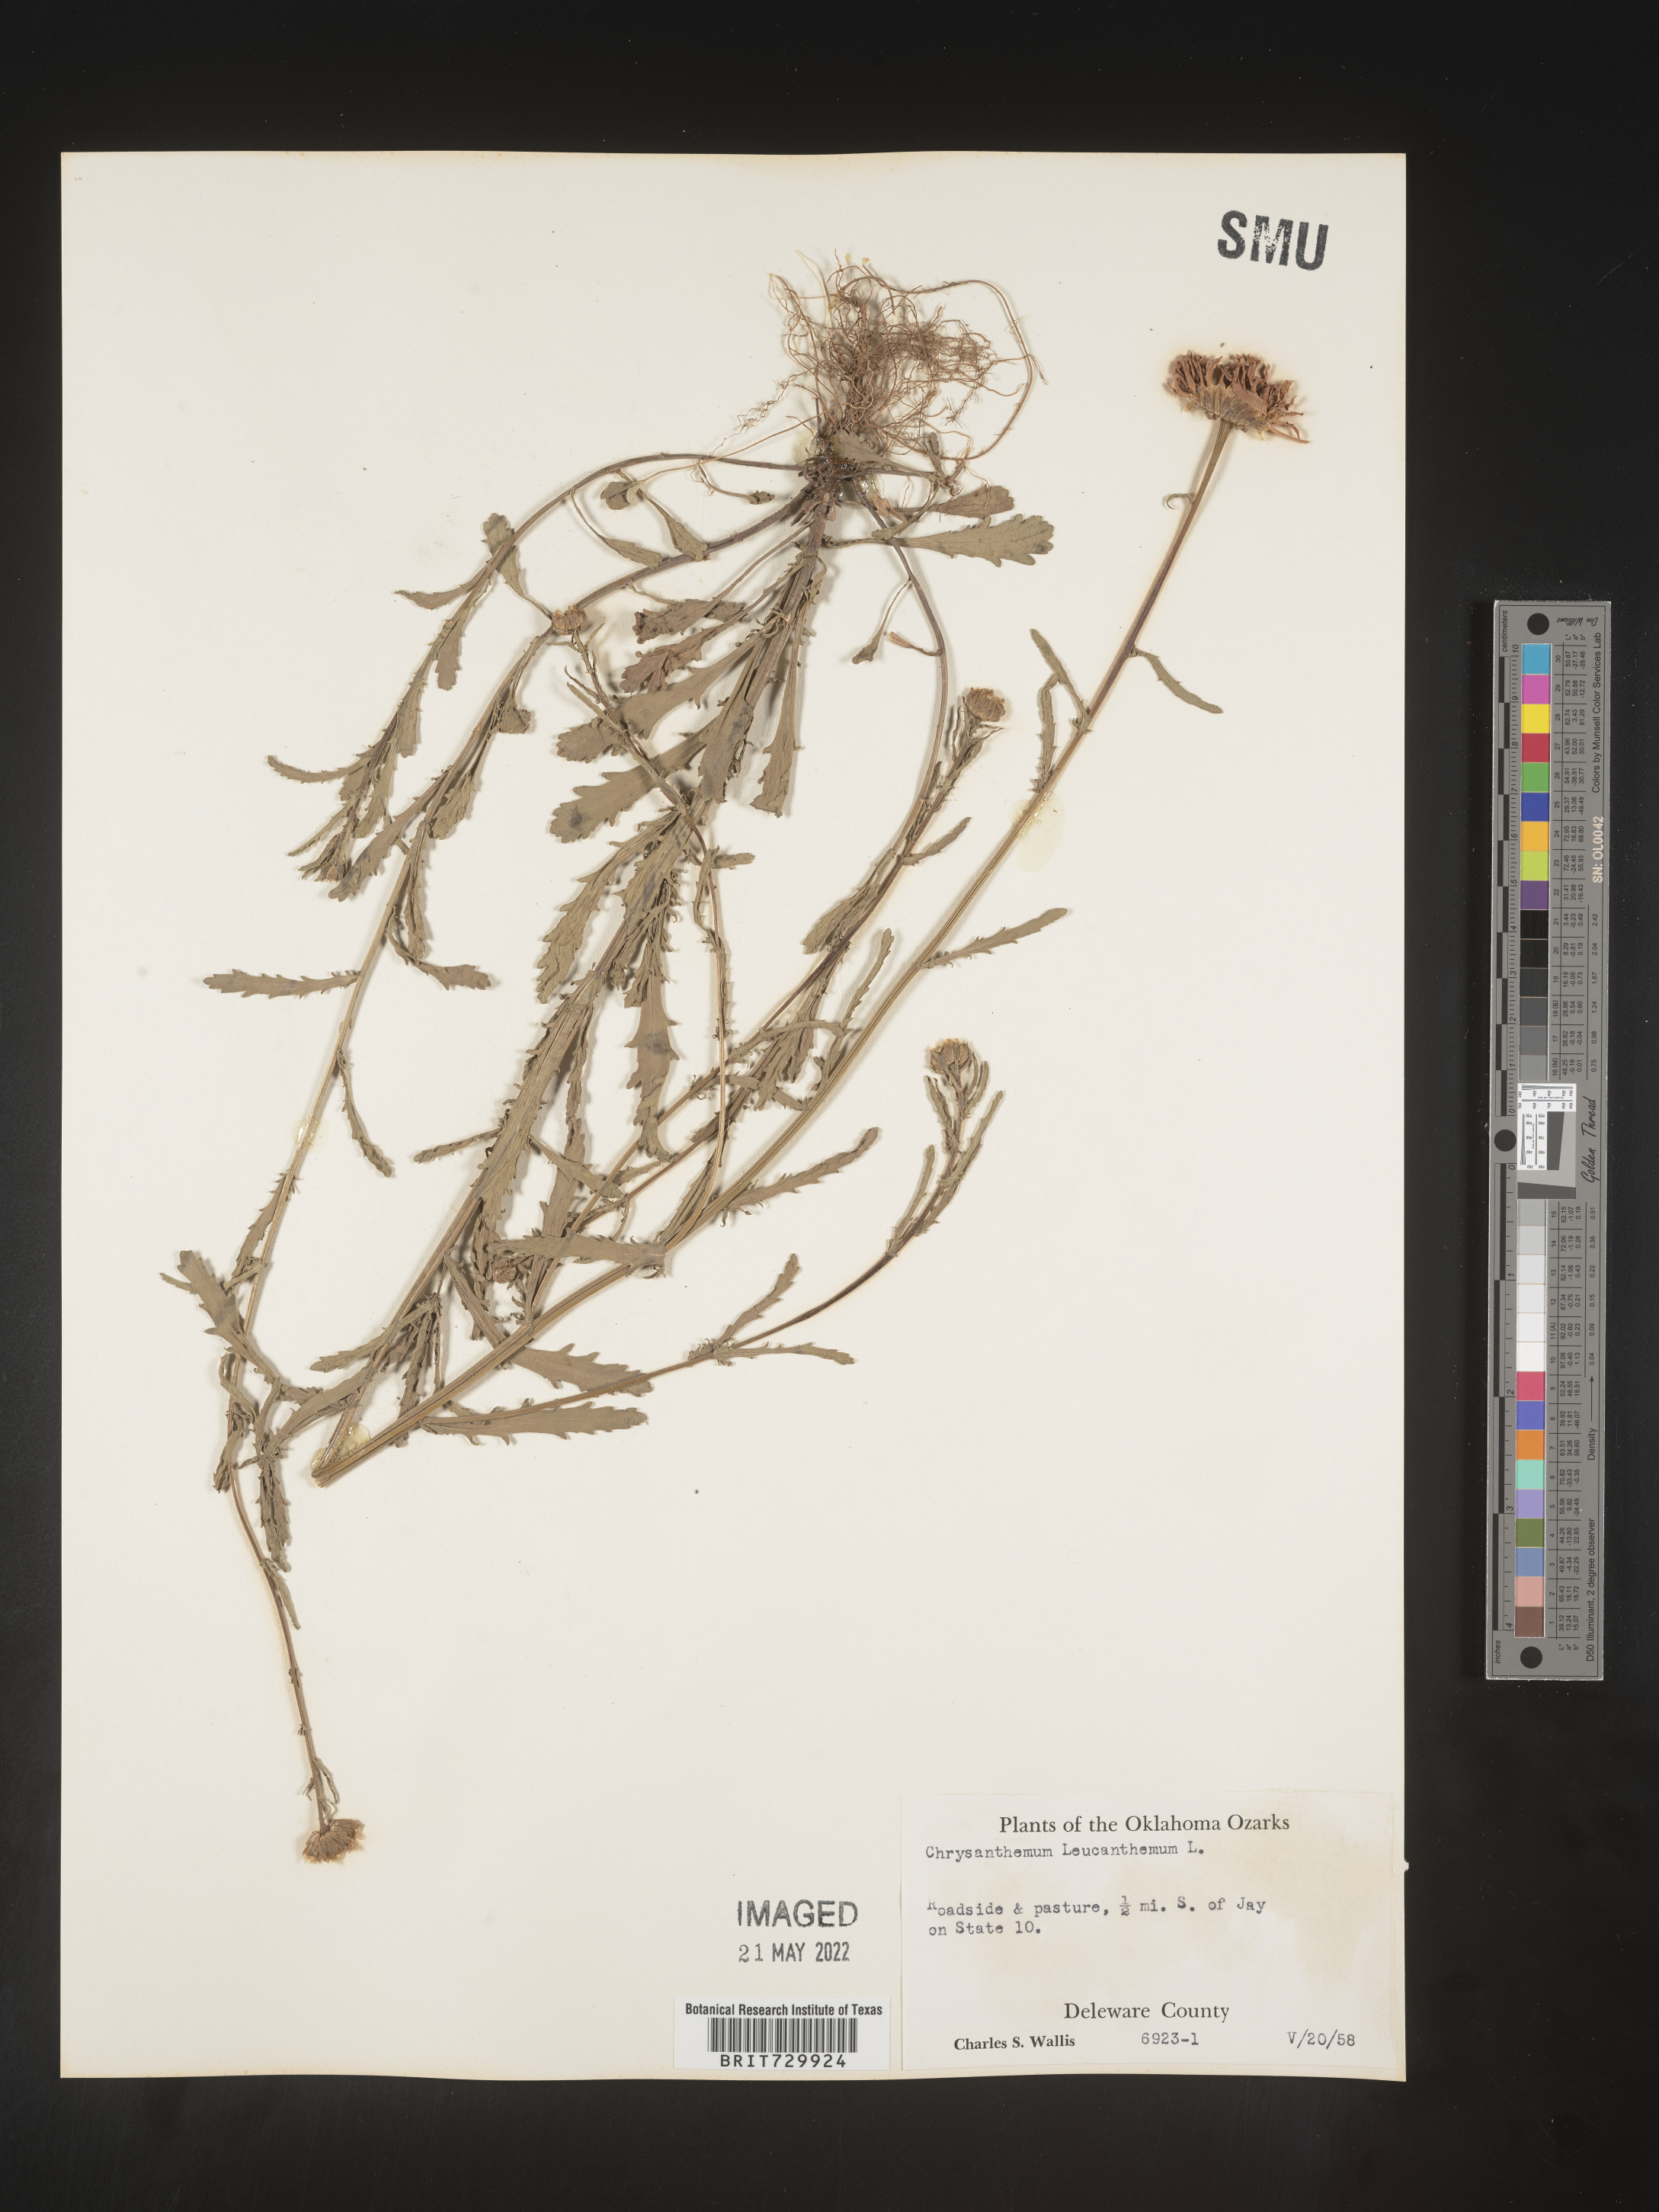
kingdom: Plantae
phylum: Tracheophyta
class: Magnoliopsida
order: Asterales
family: Asteraceae
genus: Leucanthemum
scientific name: Leucanthemum vulgare
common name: Oxeye daisy
